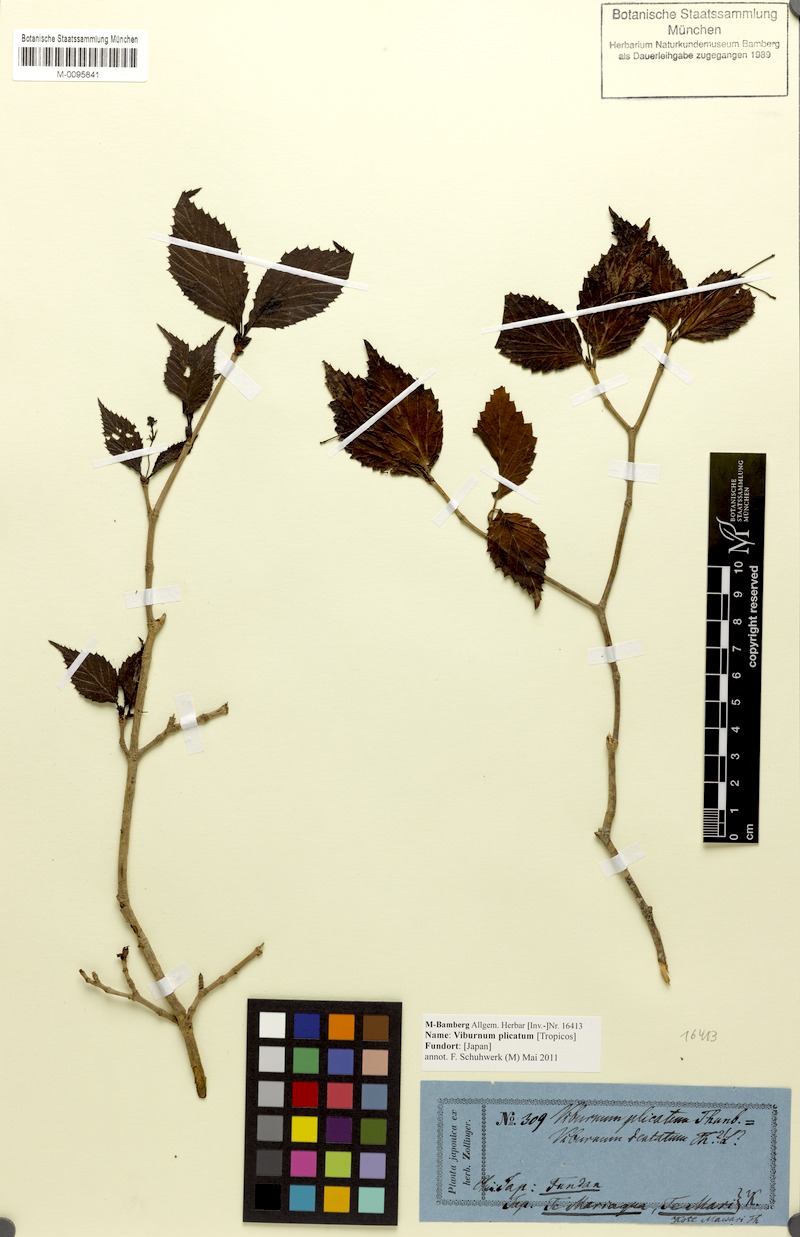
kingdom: Plantae
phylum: Tracheophyta
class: Magnoliopsida
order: Dipsacales
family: Viburnaceae
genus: Viburnum
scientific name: Viburnum plicatum
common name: Japanese snowball
